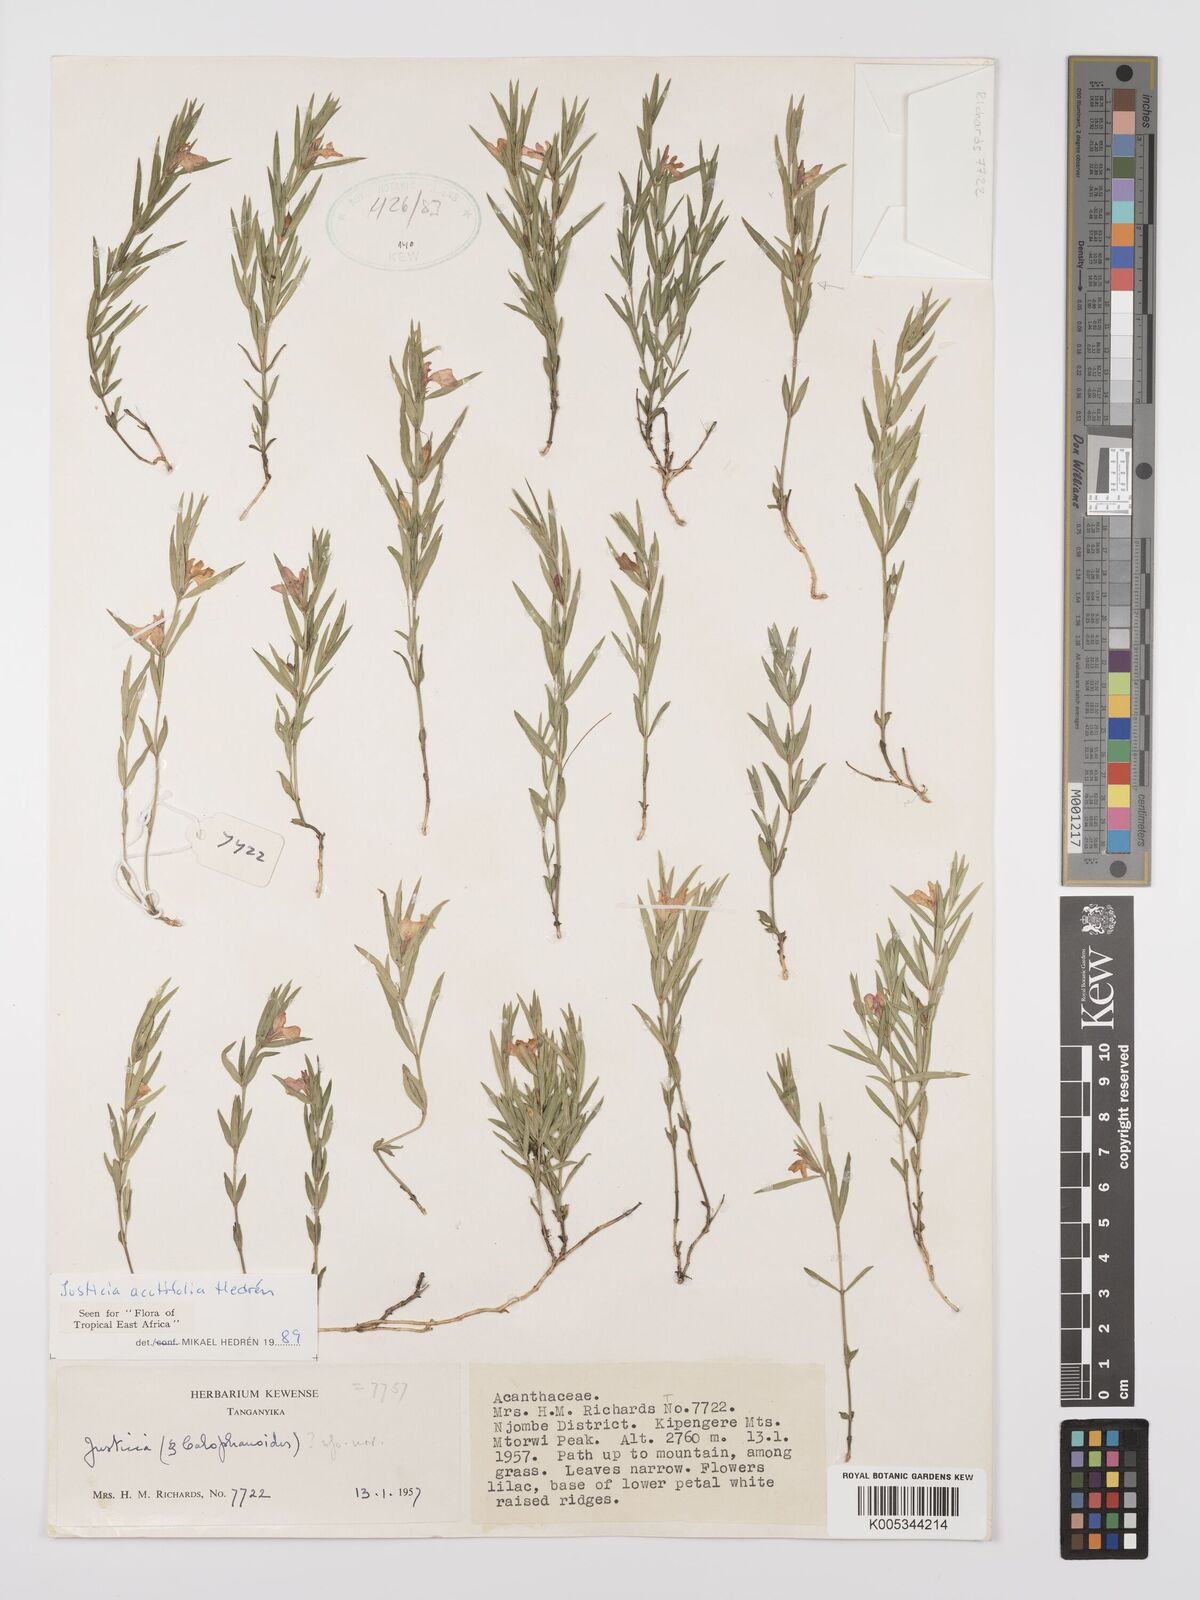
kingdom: Plantae
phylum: Tracheophyta
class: Magnoliopsida
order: Lamiales
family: Acanthaceae
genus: Justicia
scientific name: Justicia acutifolia
